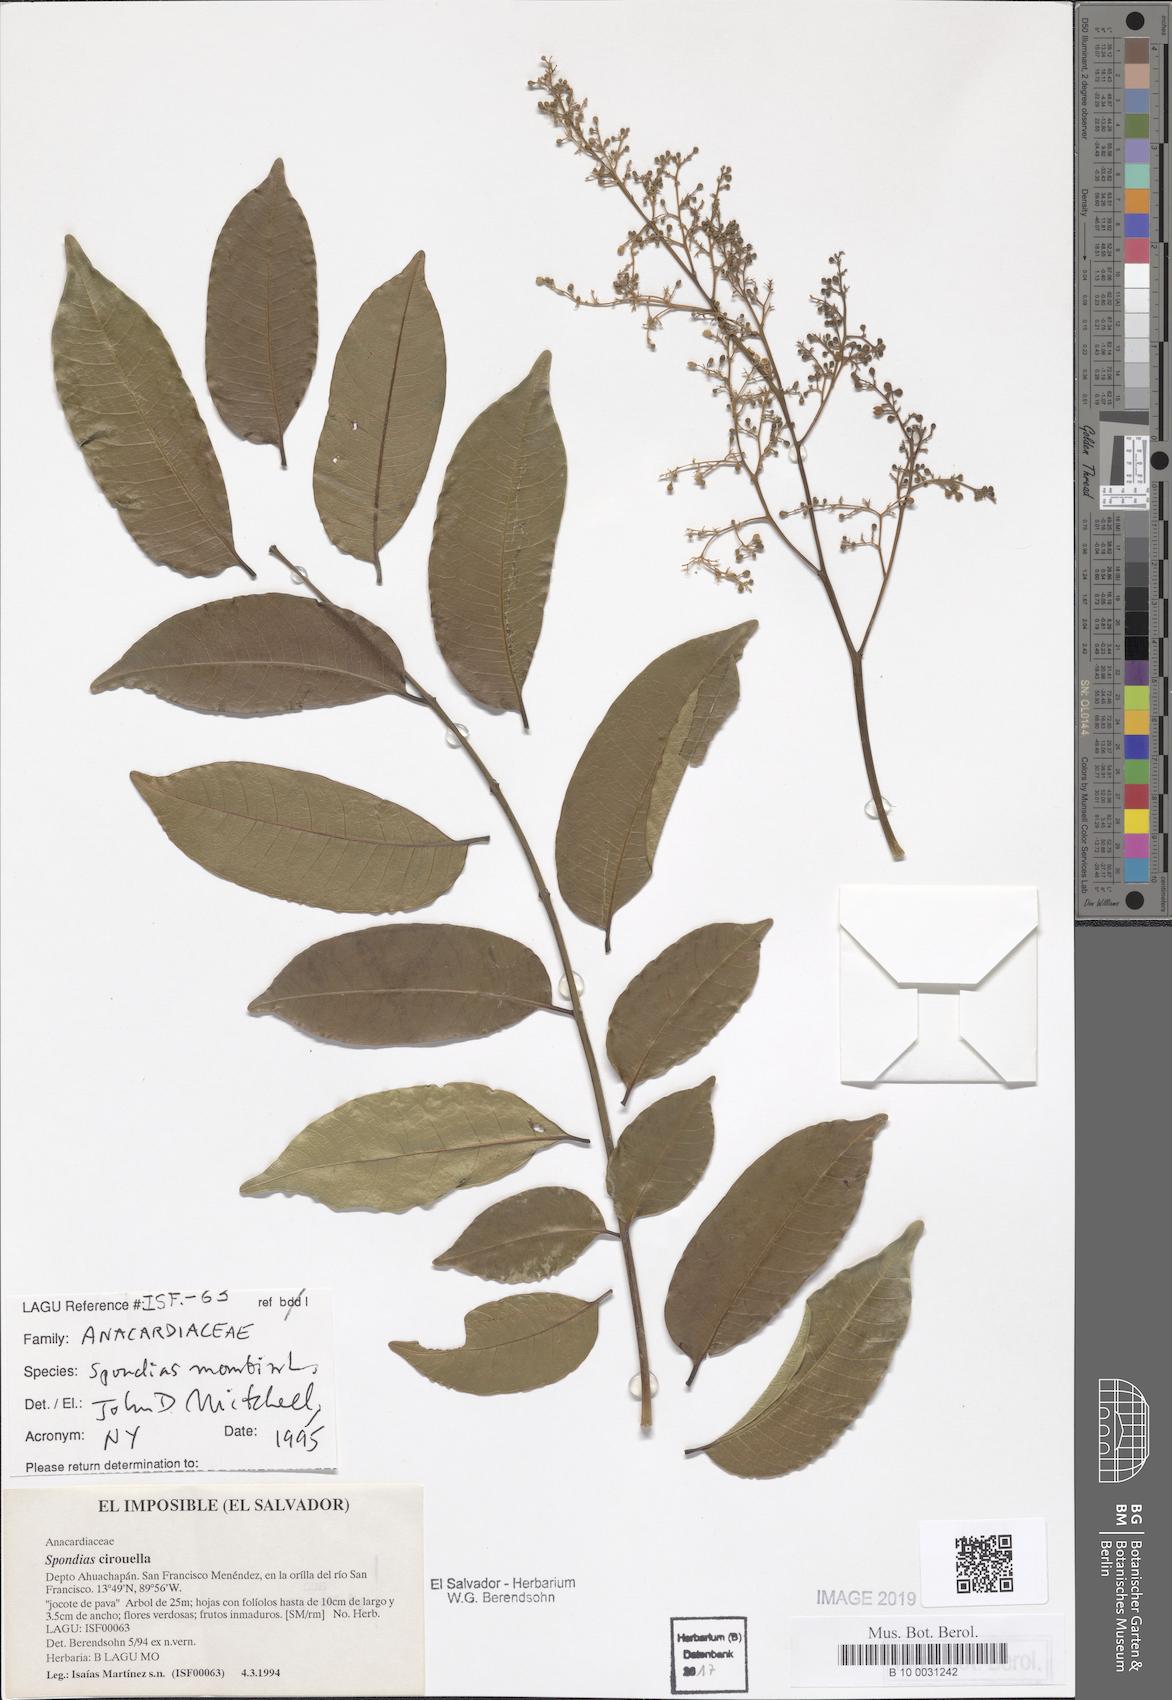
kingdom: Plantae
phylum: Tracheophyta
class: Magnoliopsida
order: Sapindales
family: Anacardiaceae
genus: Spondias
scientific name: Spondias mombin
